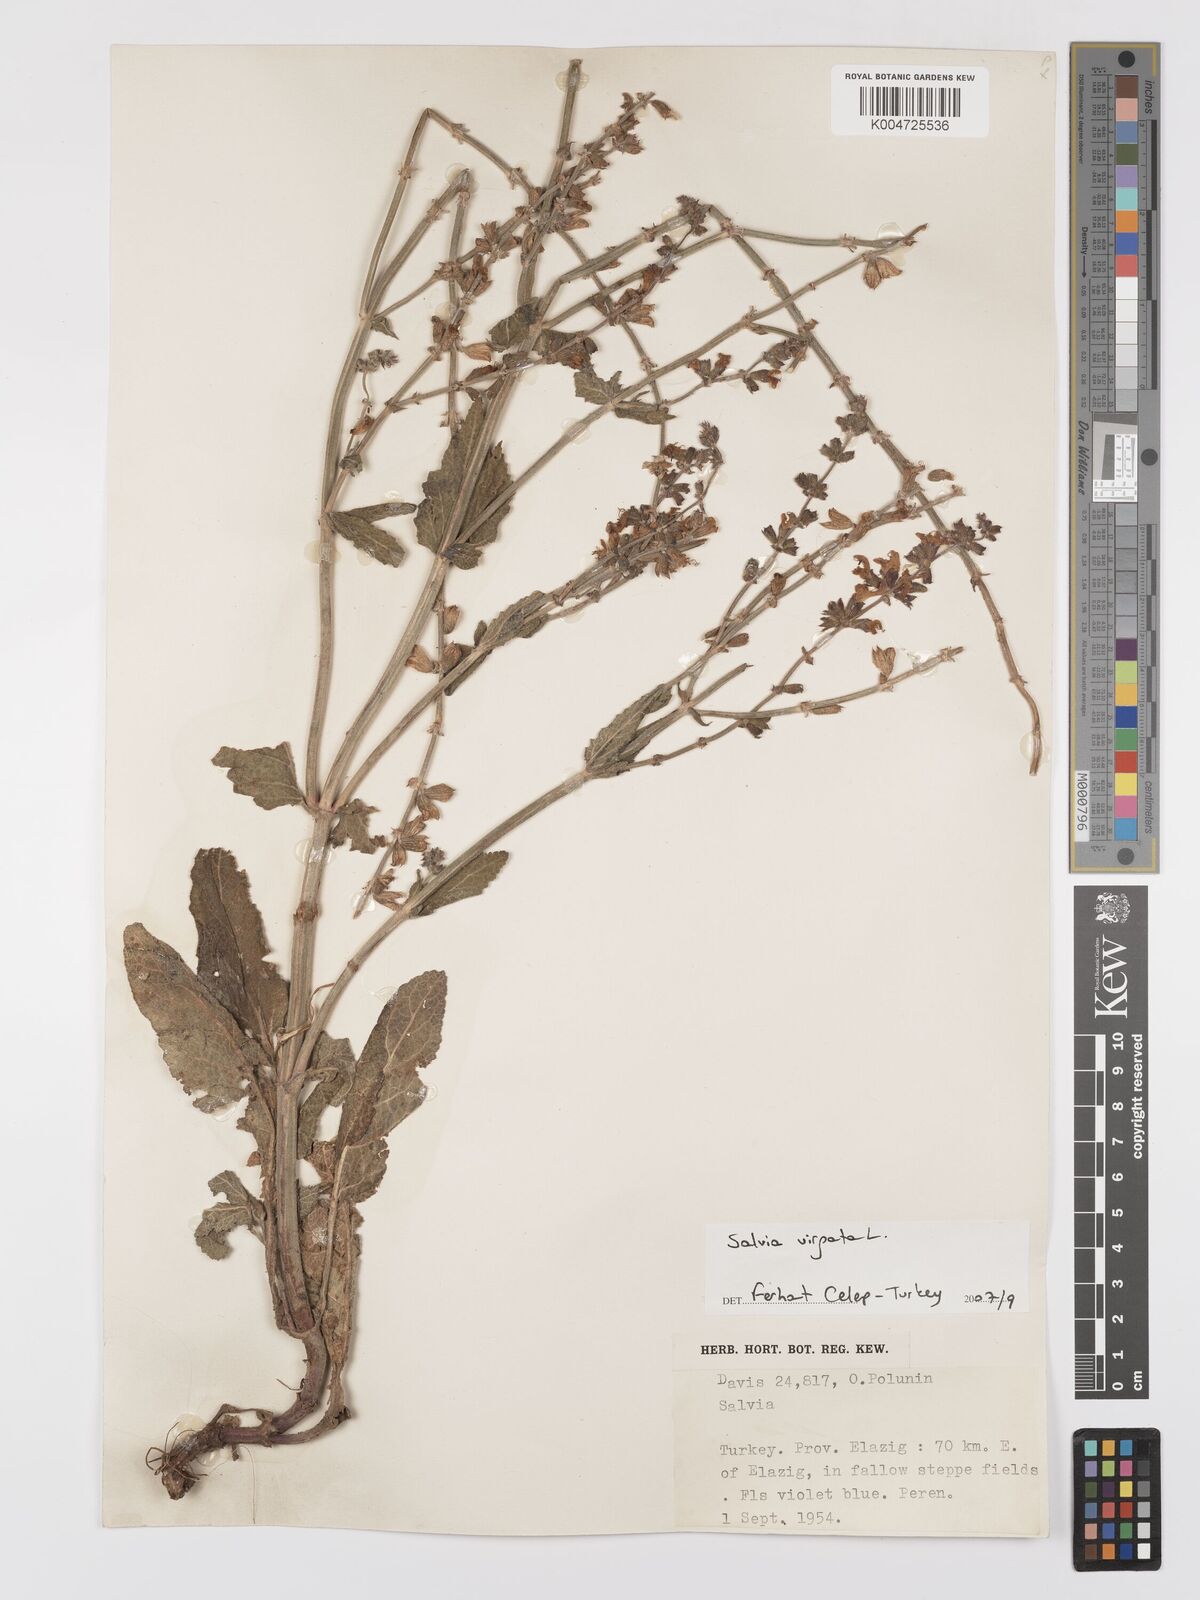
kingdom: Plantae
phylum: Tracheophyta
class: Magnoliopsida
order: Lamiales
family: Lamiaceae
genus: Salvia
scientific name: Salvia
